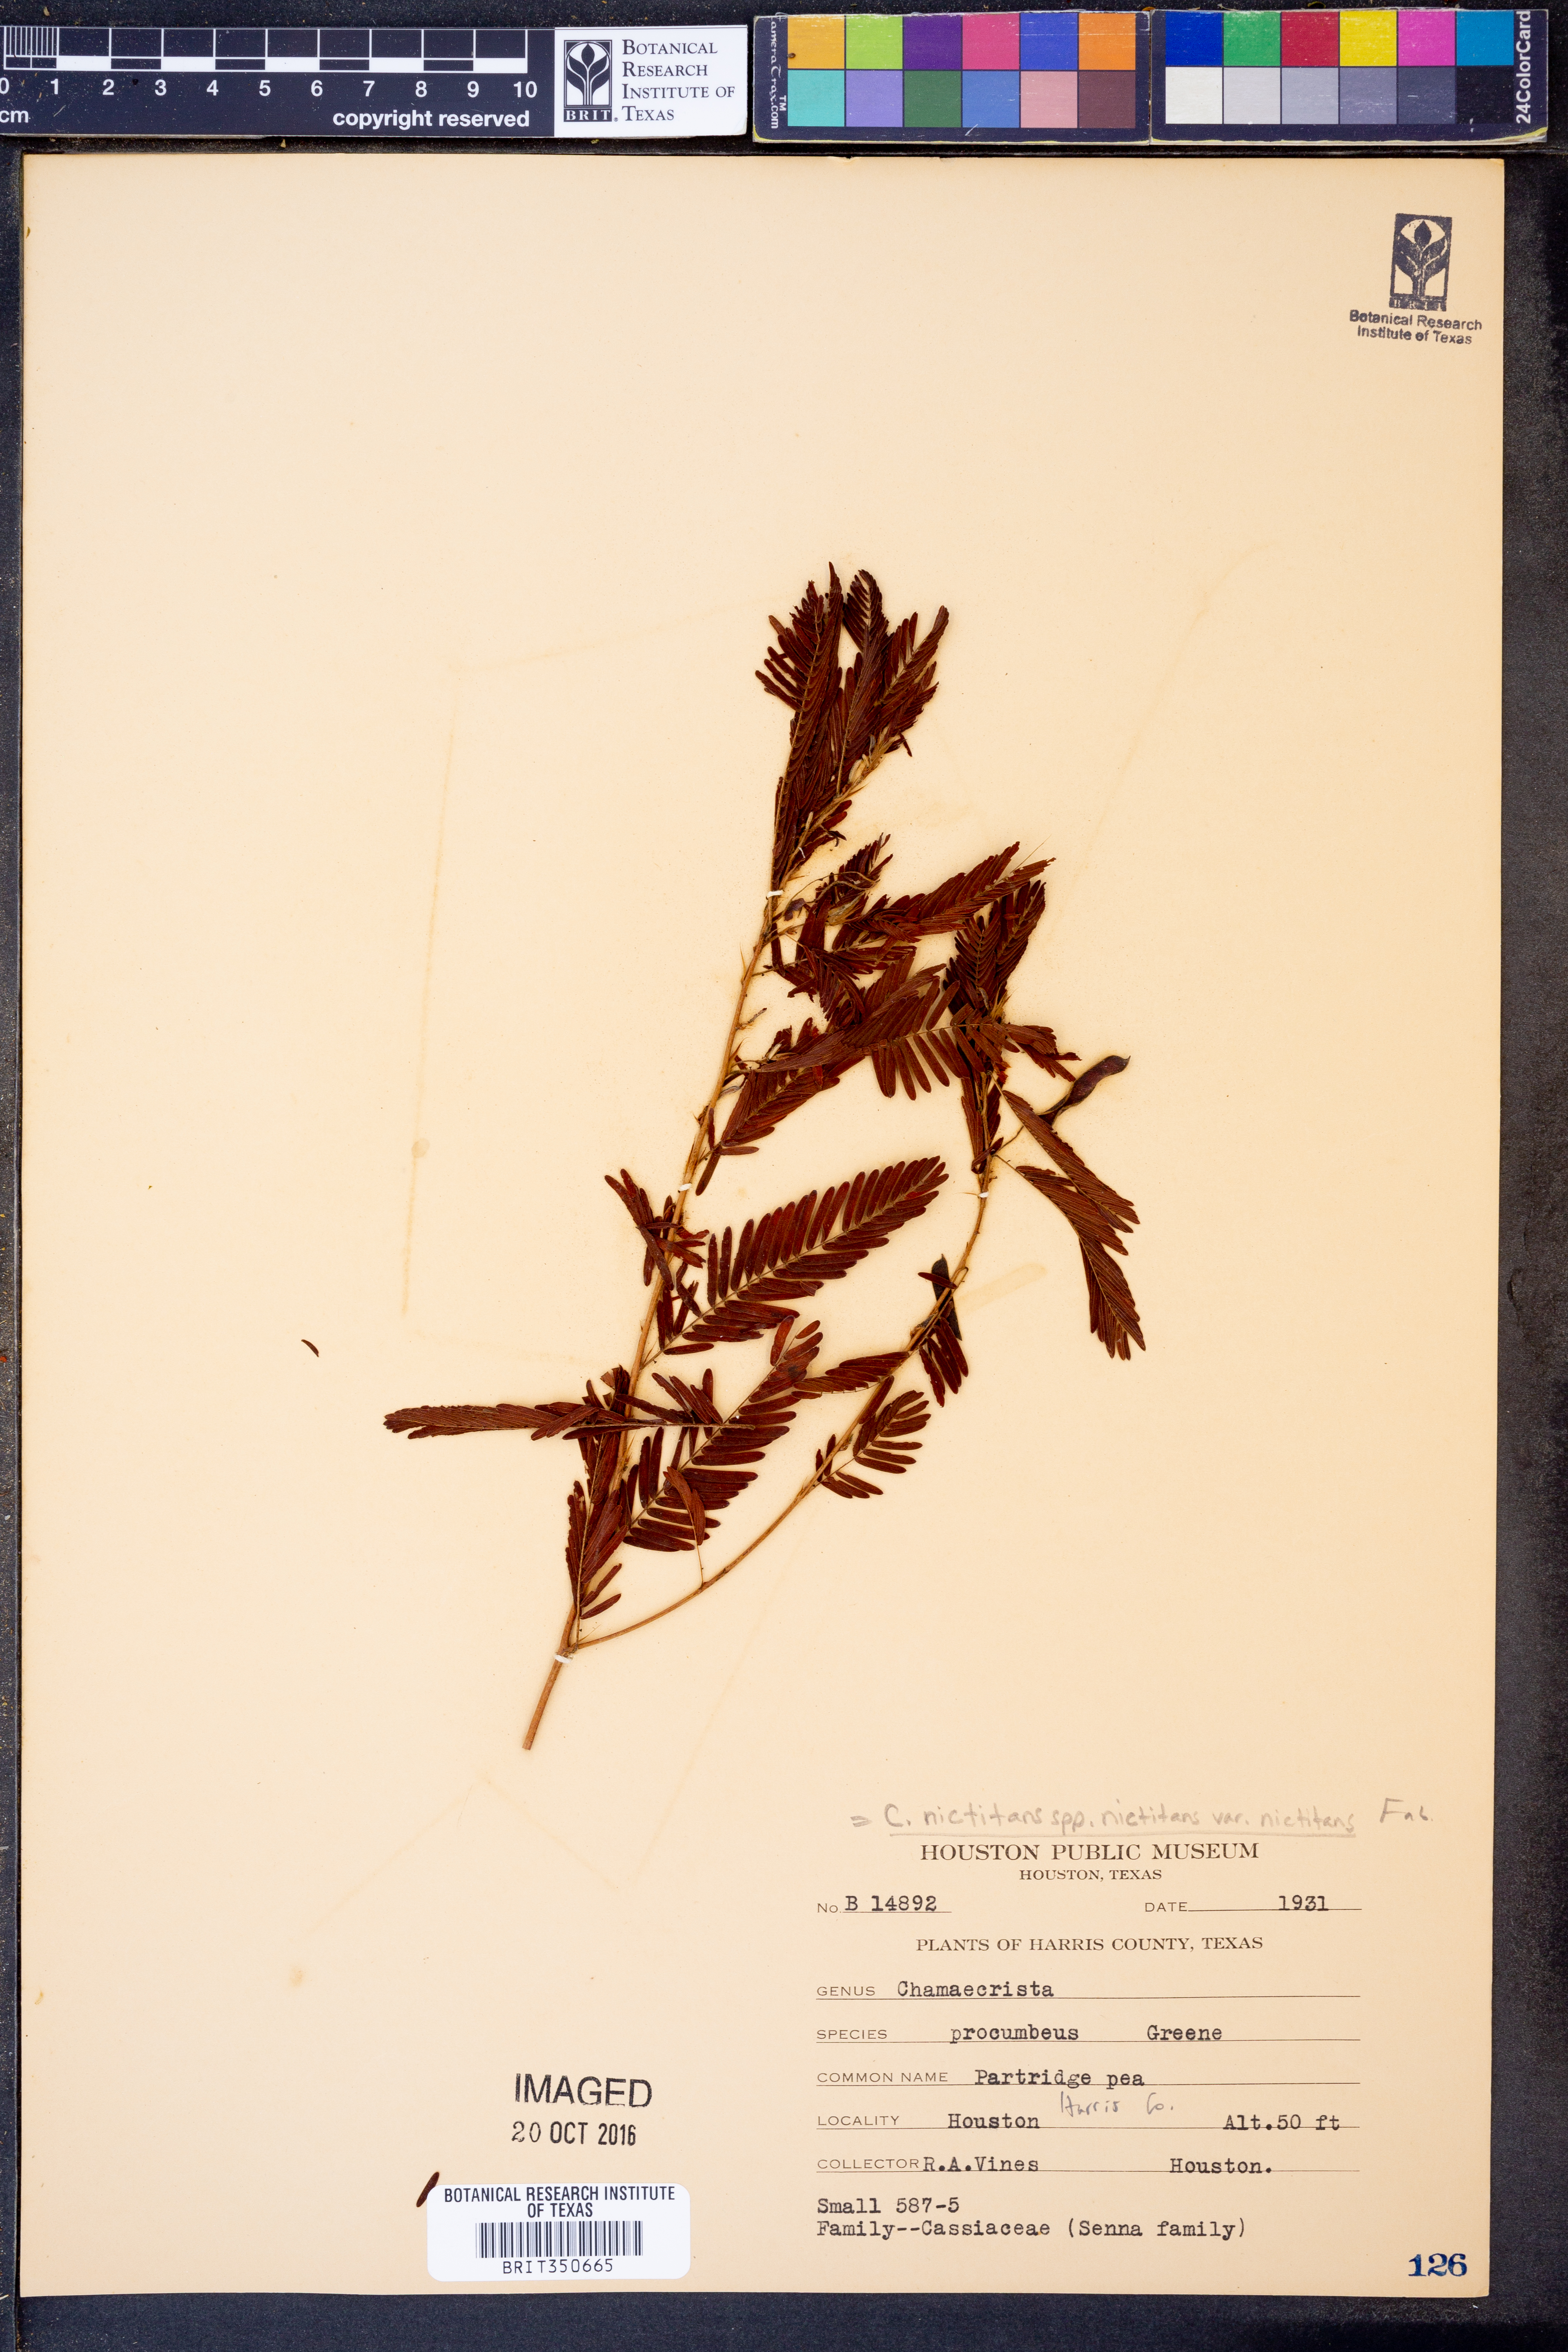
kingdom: Plantae
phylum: Tracheophyta
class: Magnoliopsida
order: Fabales
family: Fabaceae
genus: Chamaecrista
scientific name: Chamaecrista nictitans
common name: Sensitive cassia
